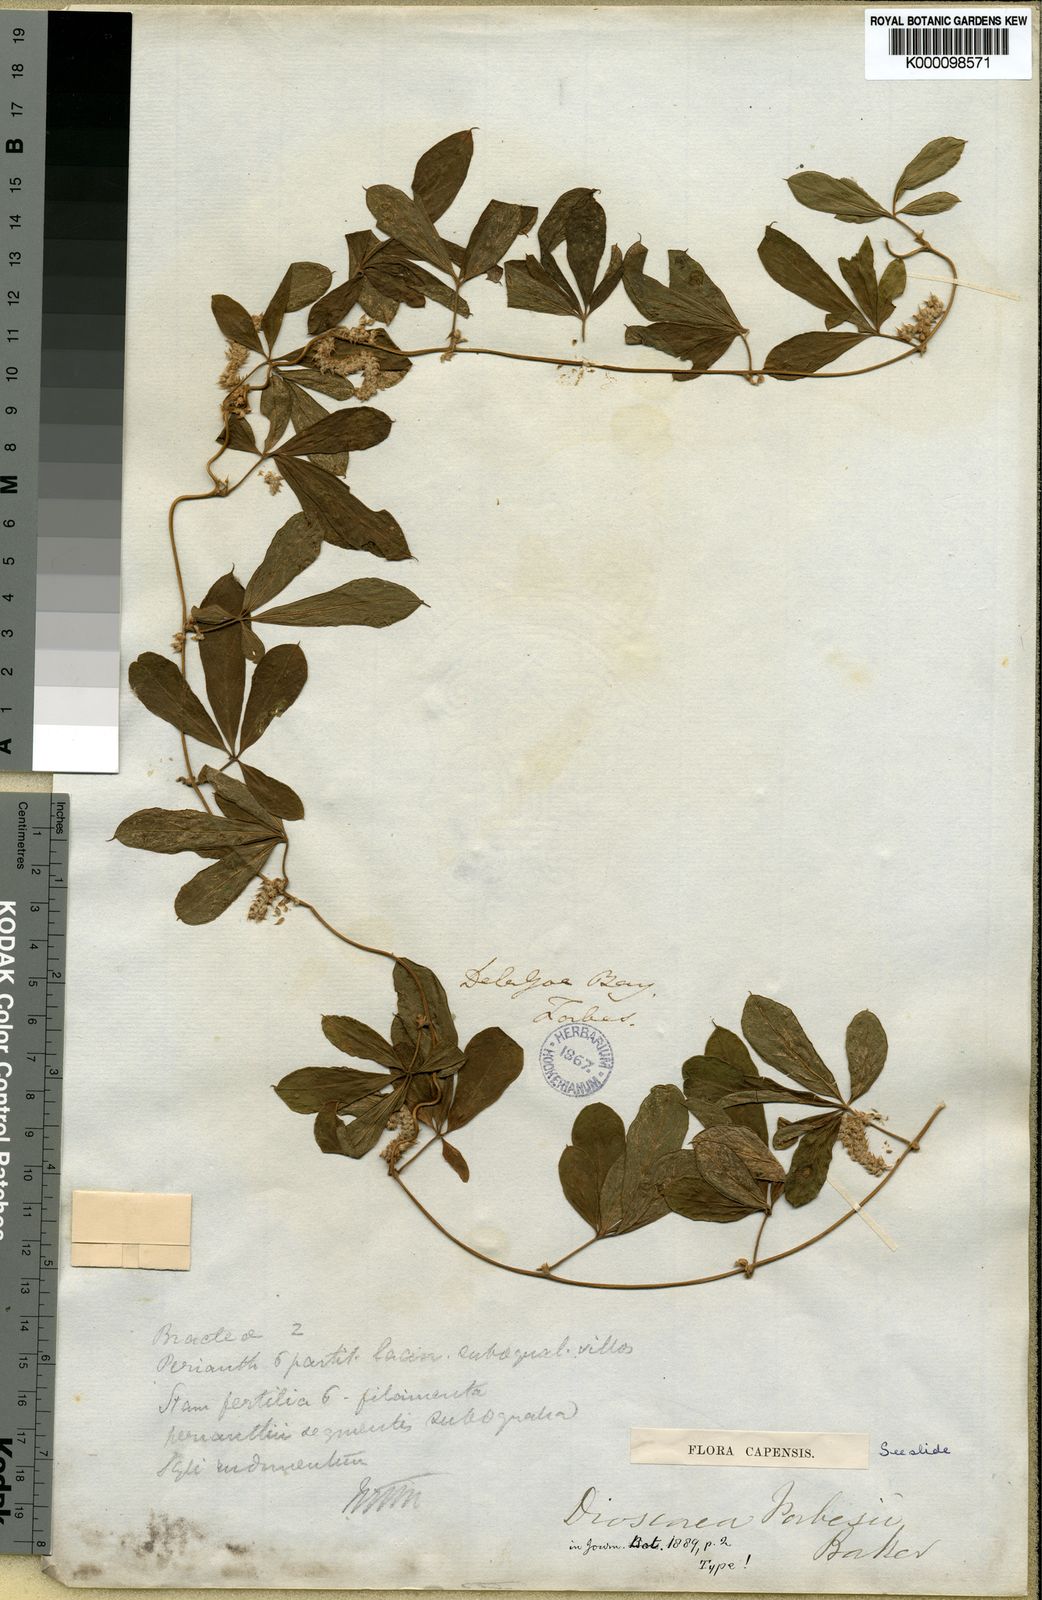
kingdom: Plantae
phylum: Tracheophyta
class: Liliopsida
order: Dioscoreales
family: Dioscoreaceae
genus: Dioscorea
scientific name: Dioscorea quartiniana
